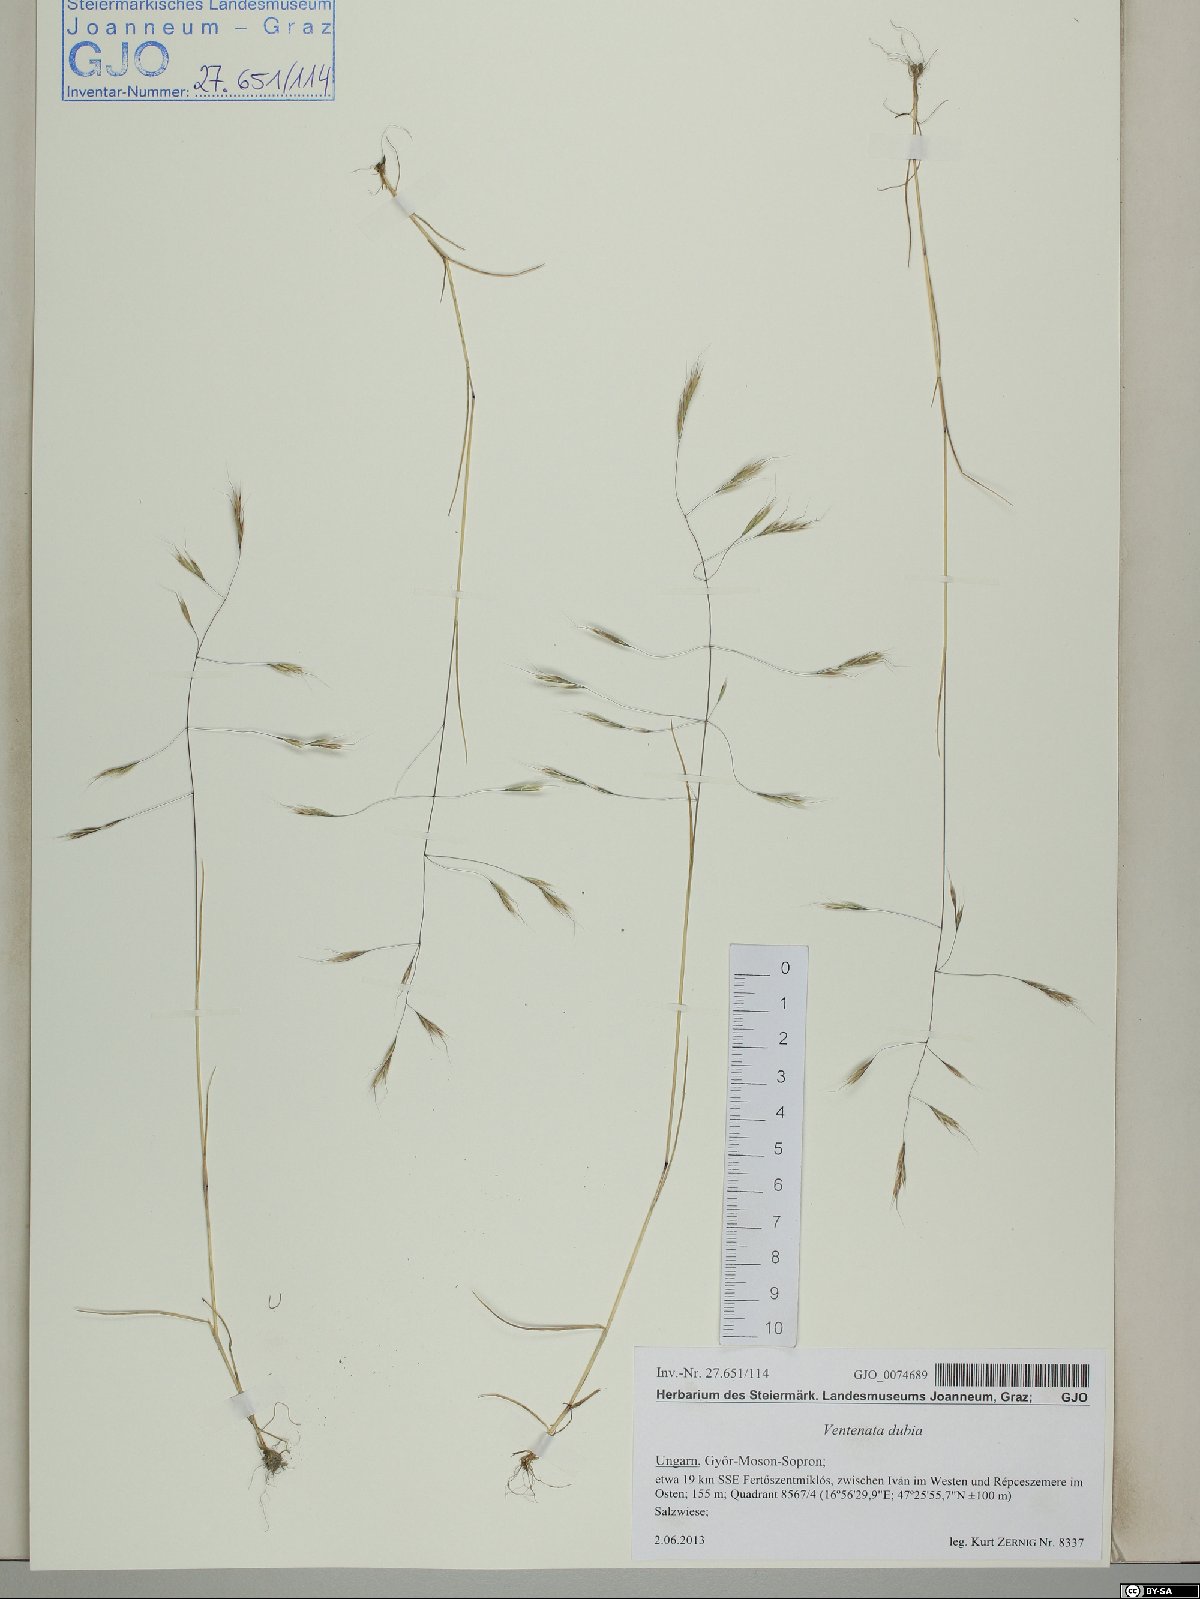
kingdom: Plantae
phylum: Tracheophyta
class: Liliopsida
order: Poales
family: Poaceae
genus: Ventenata
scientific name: Ventenata dubia
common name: North africa grass
